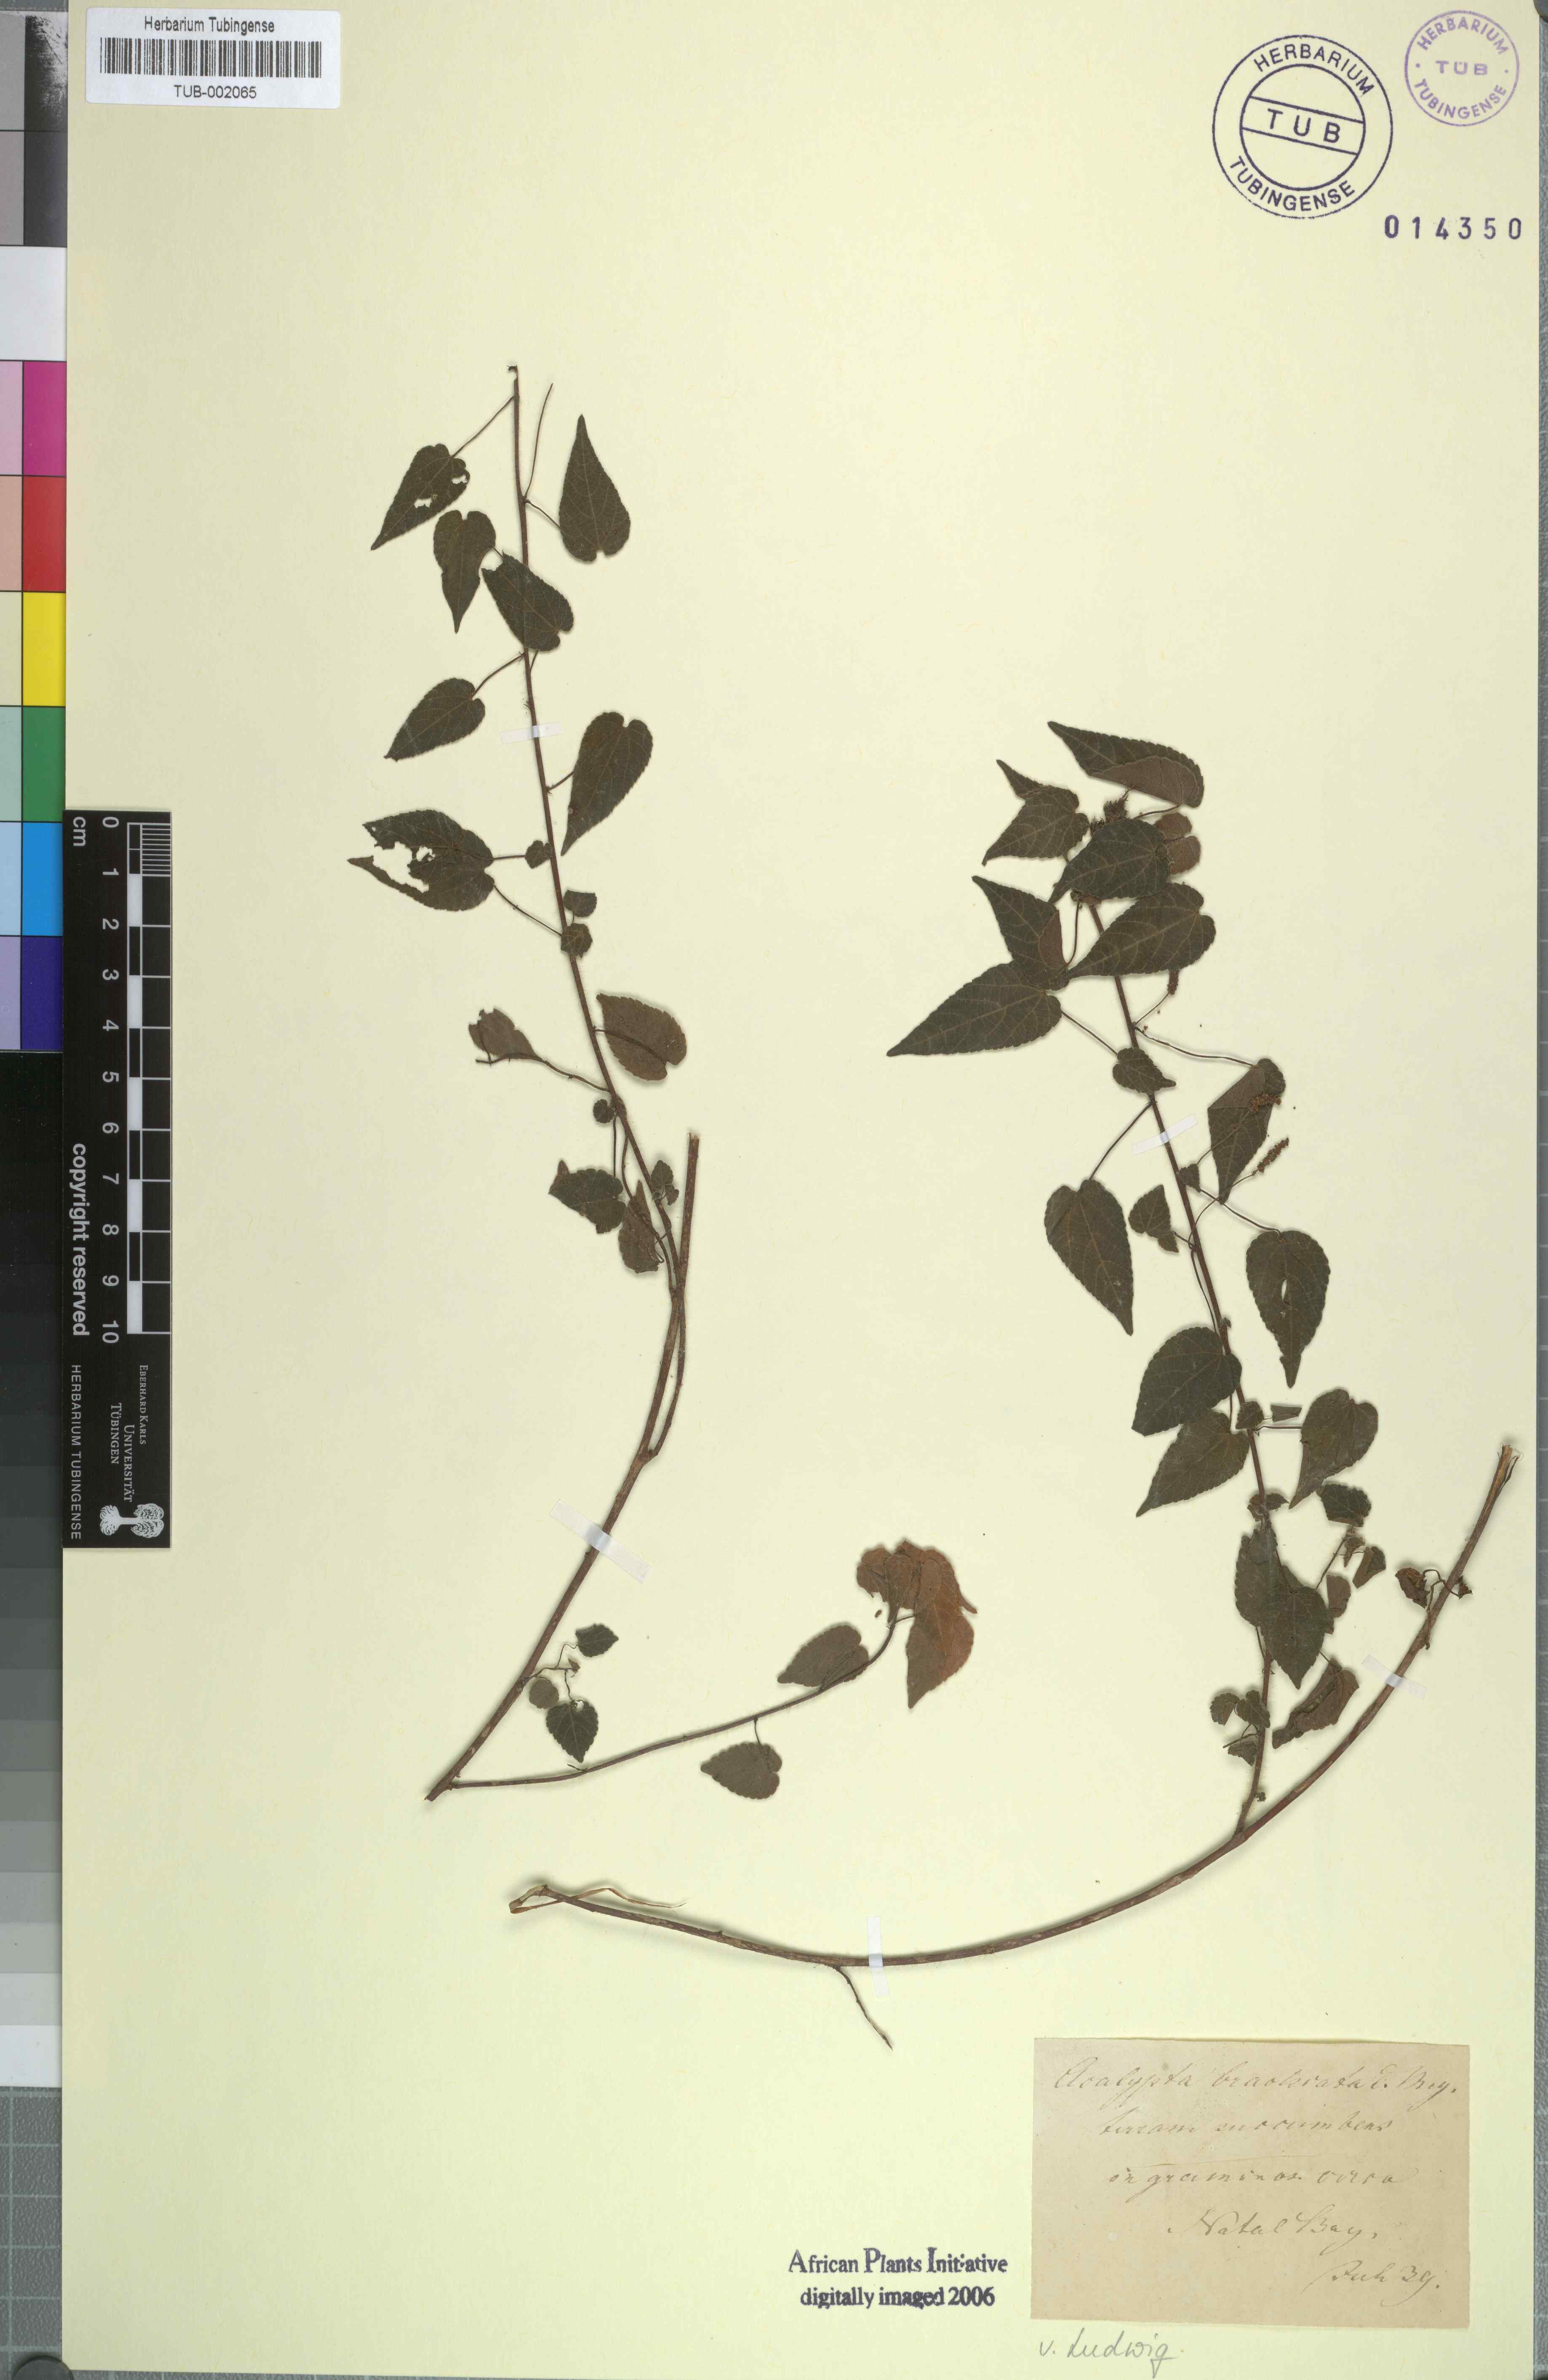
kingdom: Plantae
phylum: Tracheophyta
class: Magnoliopsida
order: Malpighiales
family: Euphorbiaceae
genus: Acalypha
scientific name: Acalypha petiolaris
